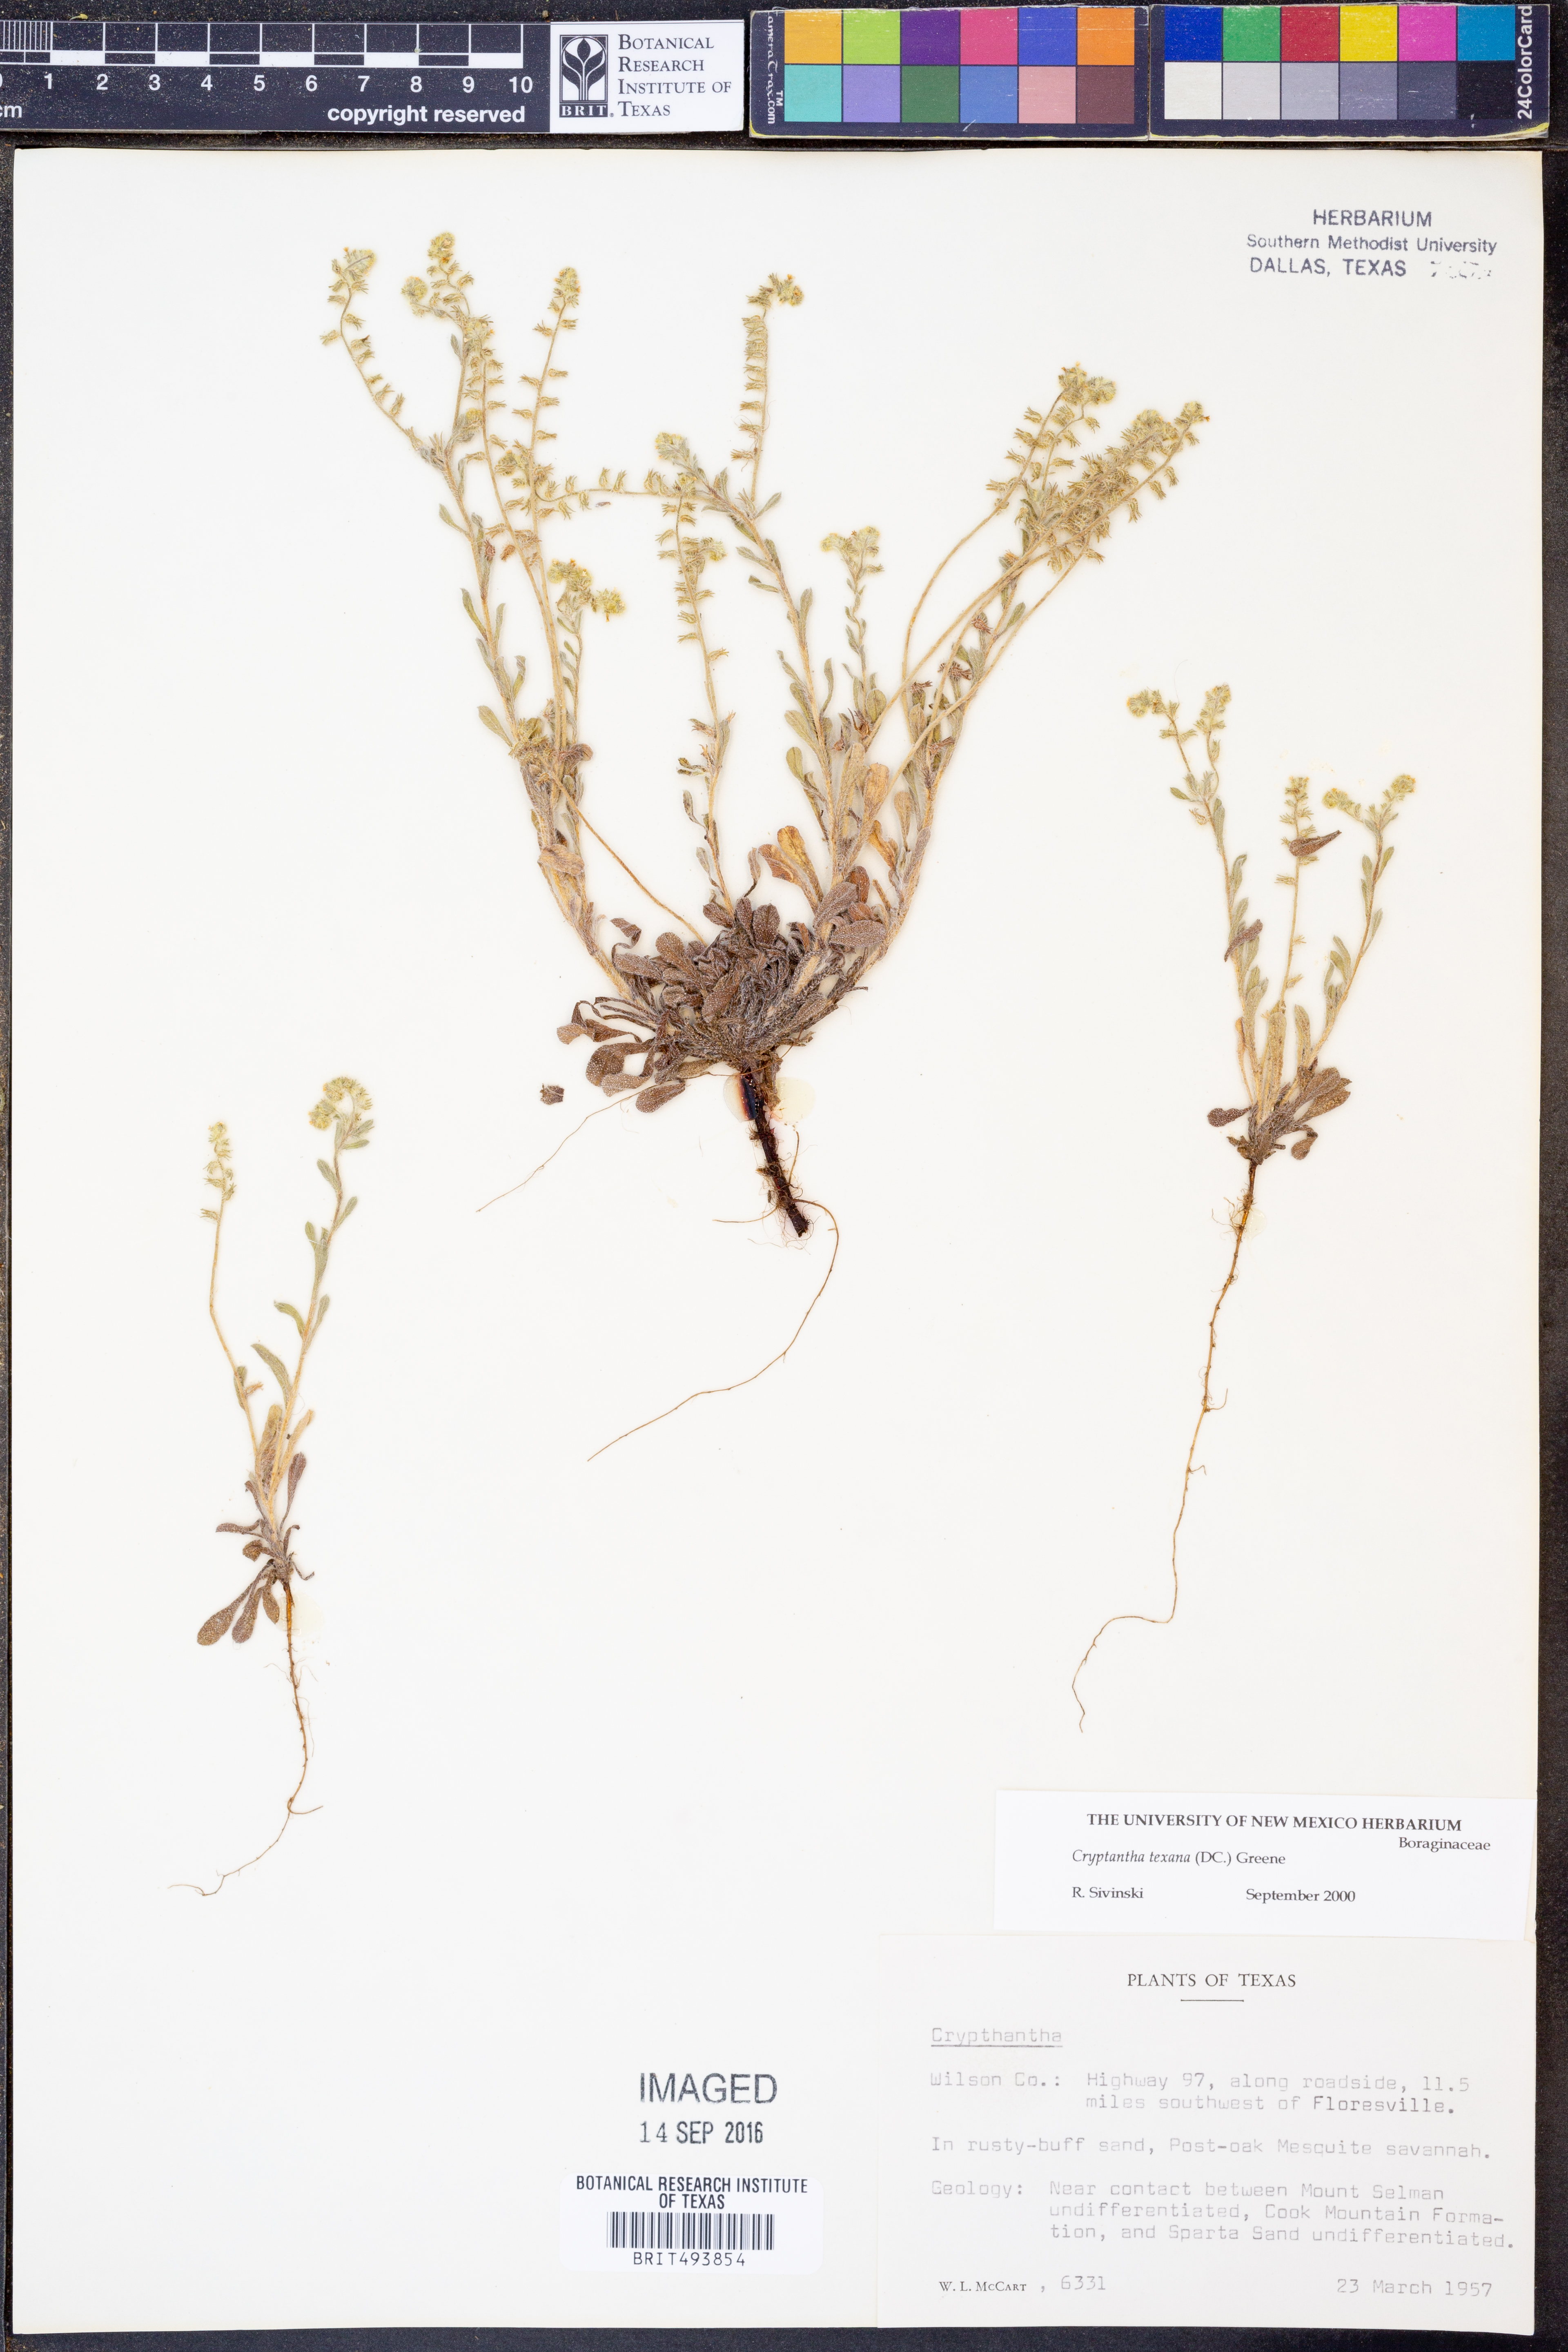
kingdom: Plantae
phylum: Tracheophyta
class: Magnoliopsida
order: Boraginales
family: Boraginaceae
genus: Cryptantha
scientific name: Cryptantha texana
